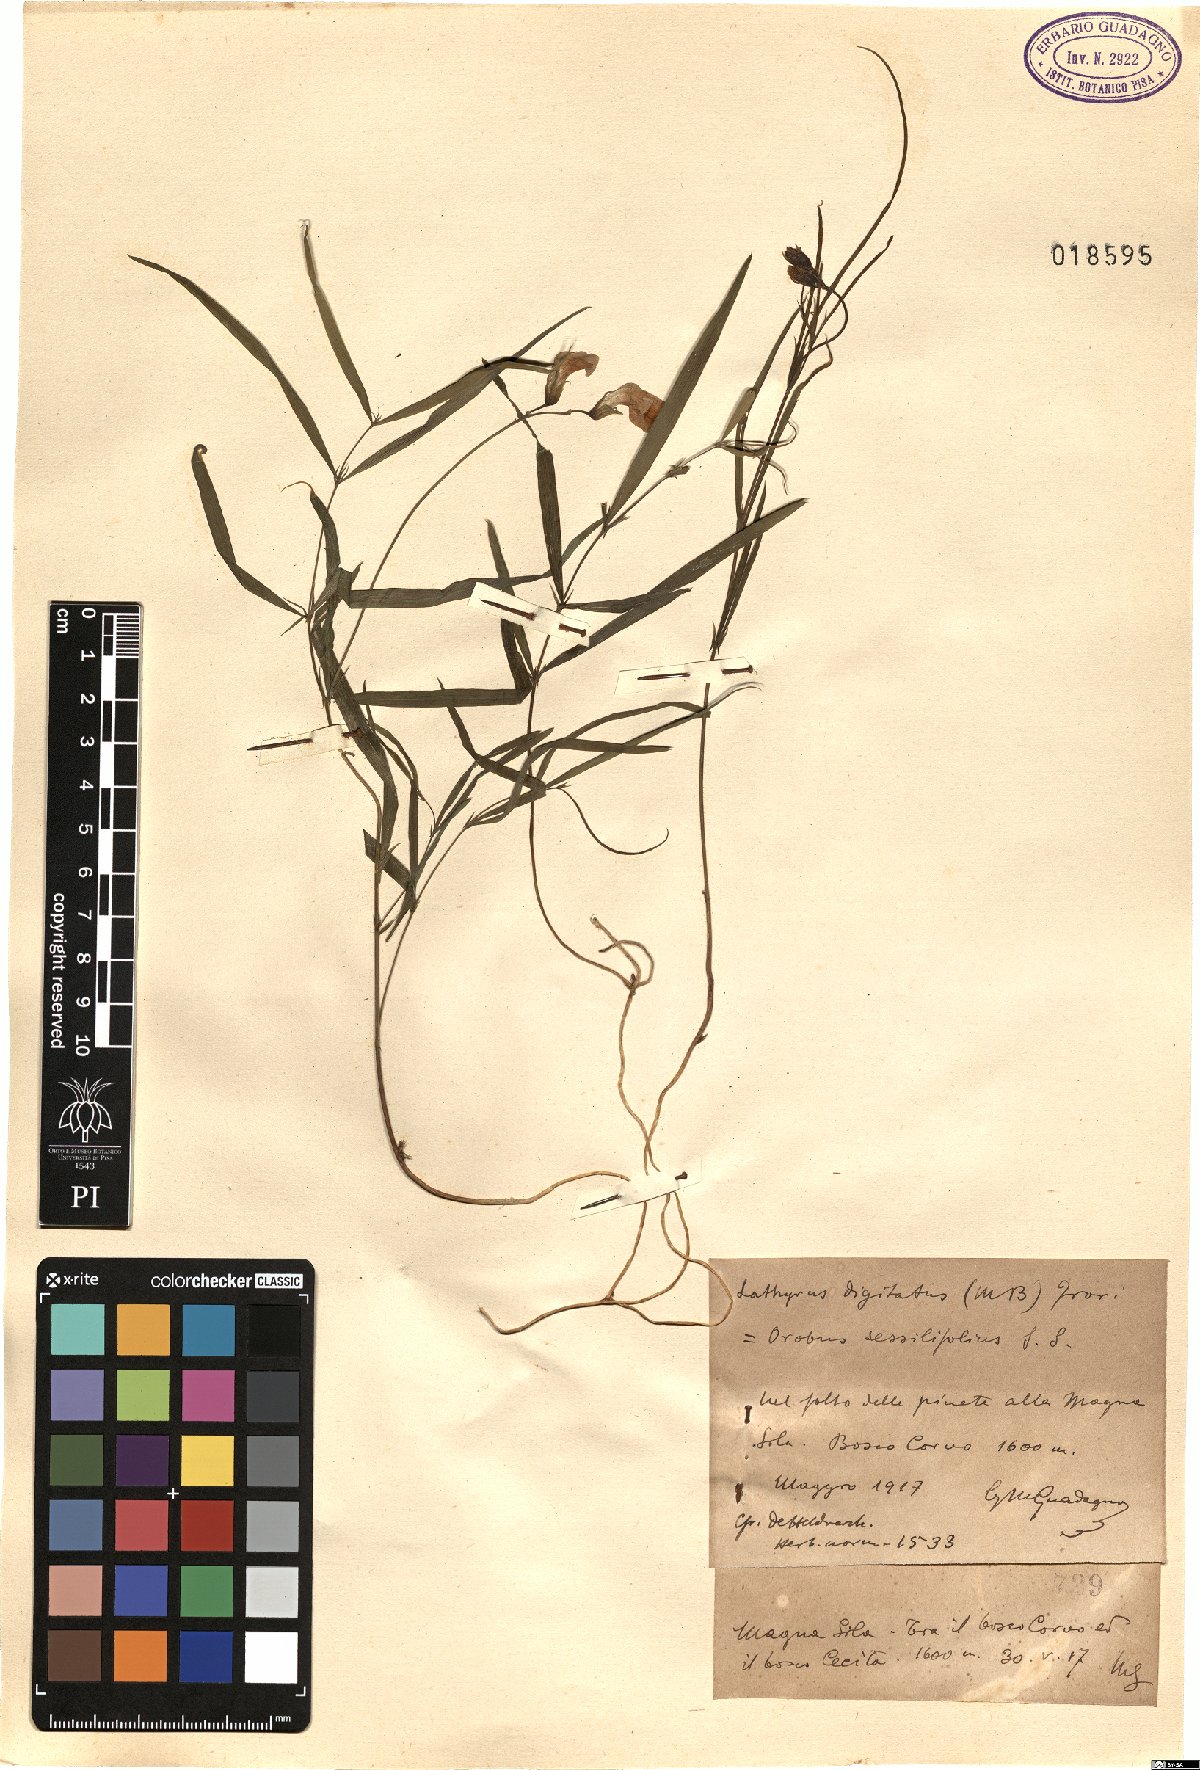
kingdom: Plantae
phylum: Tracheophyta
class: Magnoliopsida
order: Fabales
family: Fabaceae
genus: Lathyrus
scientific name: Lathyrus digitatus
